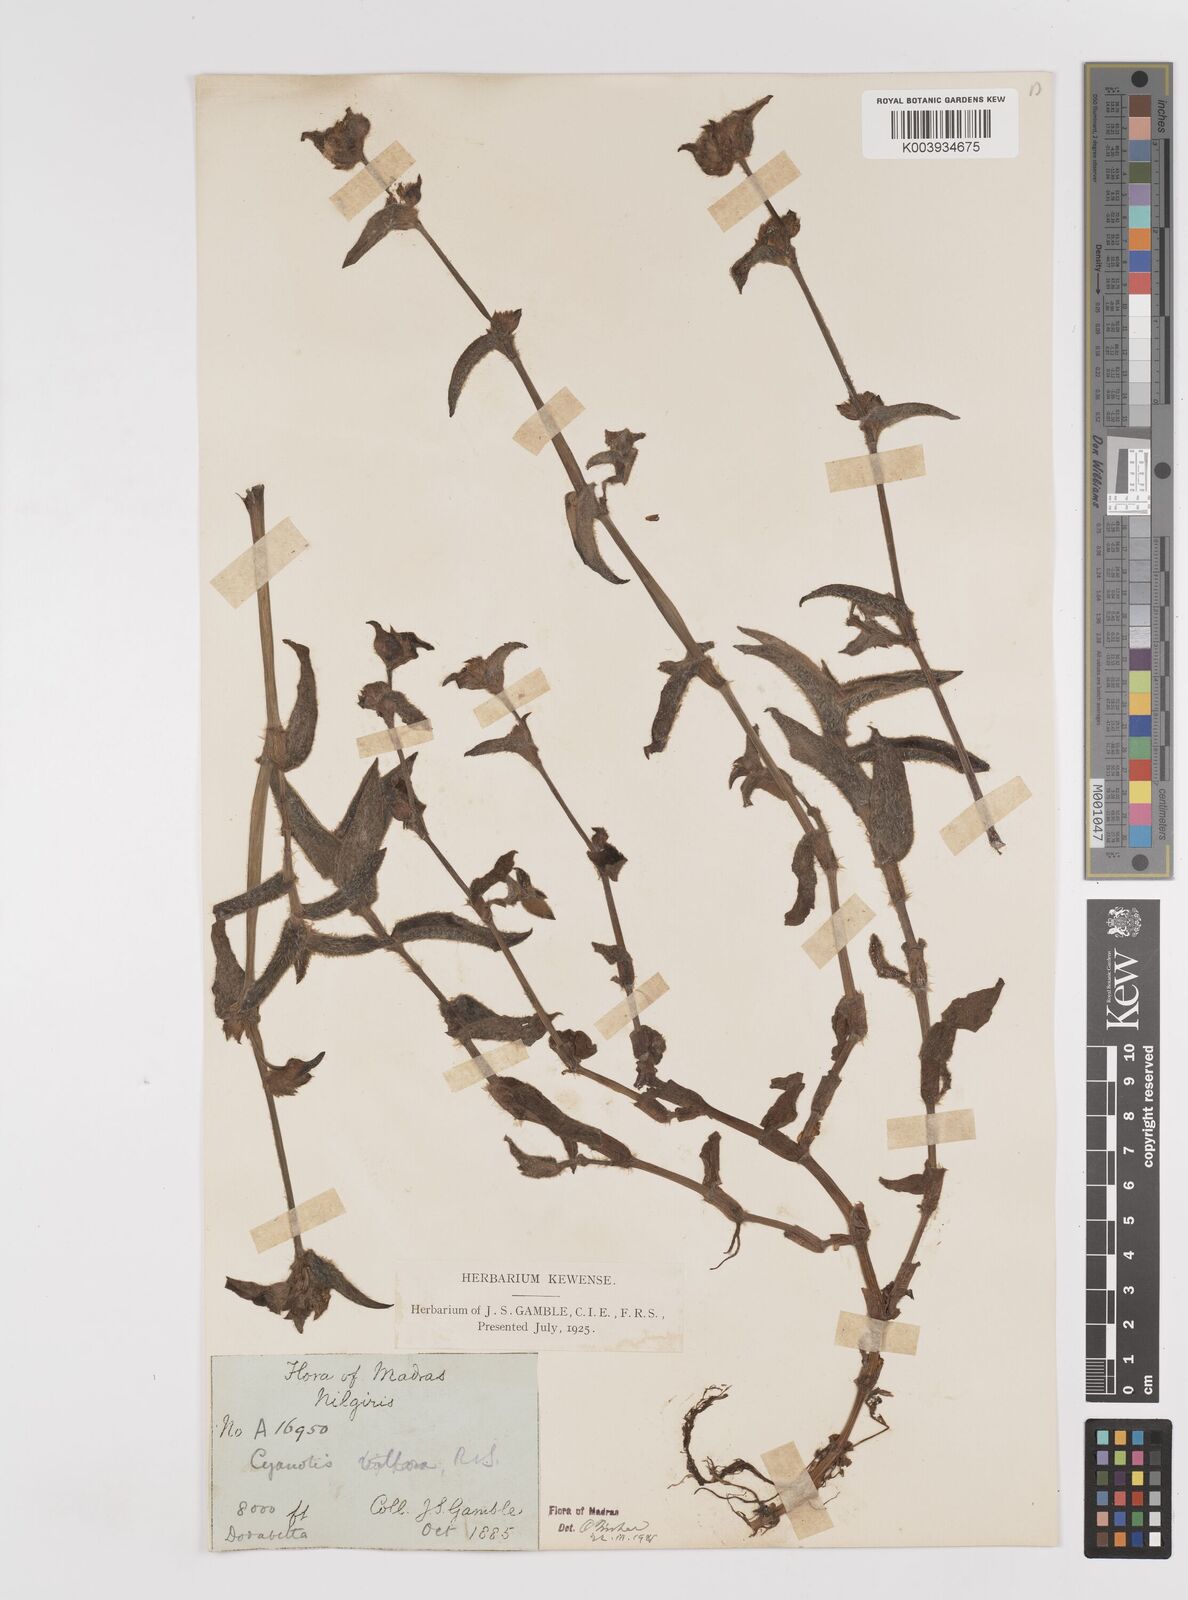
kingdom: Plantae
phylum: Tracheophyta
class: Liliopsida
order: Commelinales
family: Commelinaceae
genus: Cyanotis
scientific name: Cyanotis villosa
